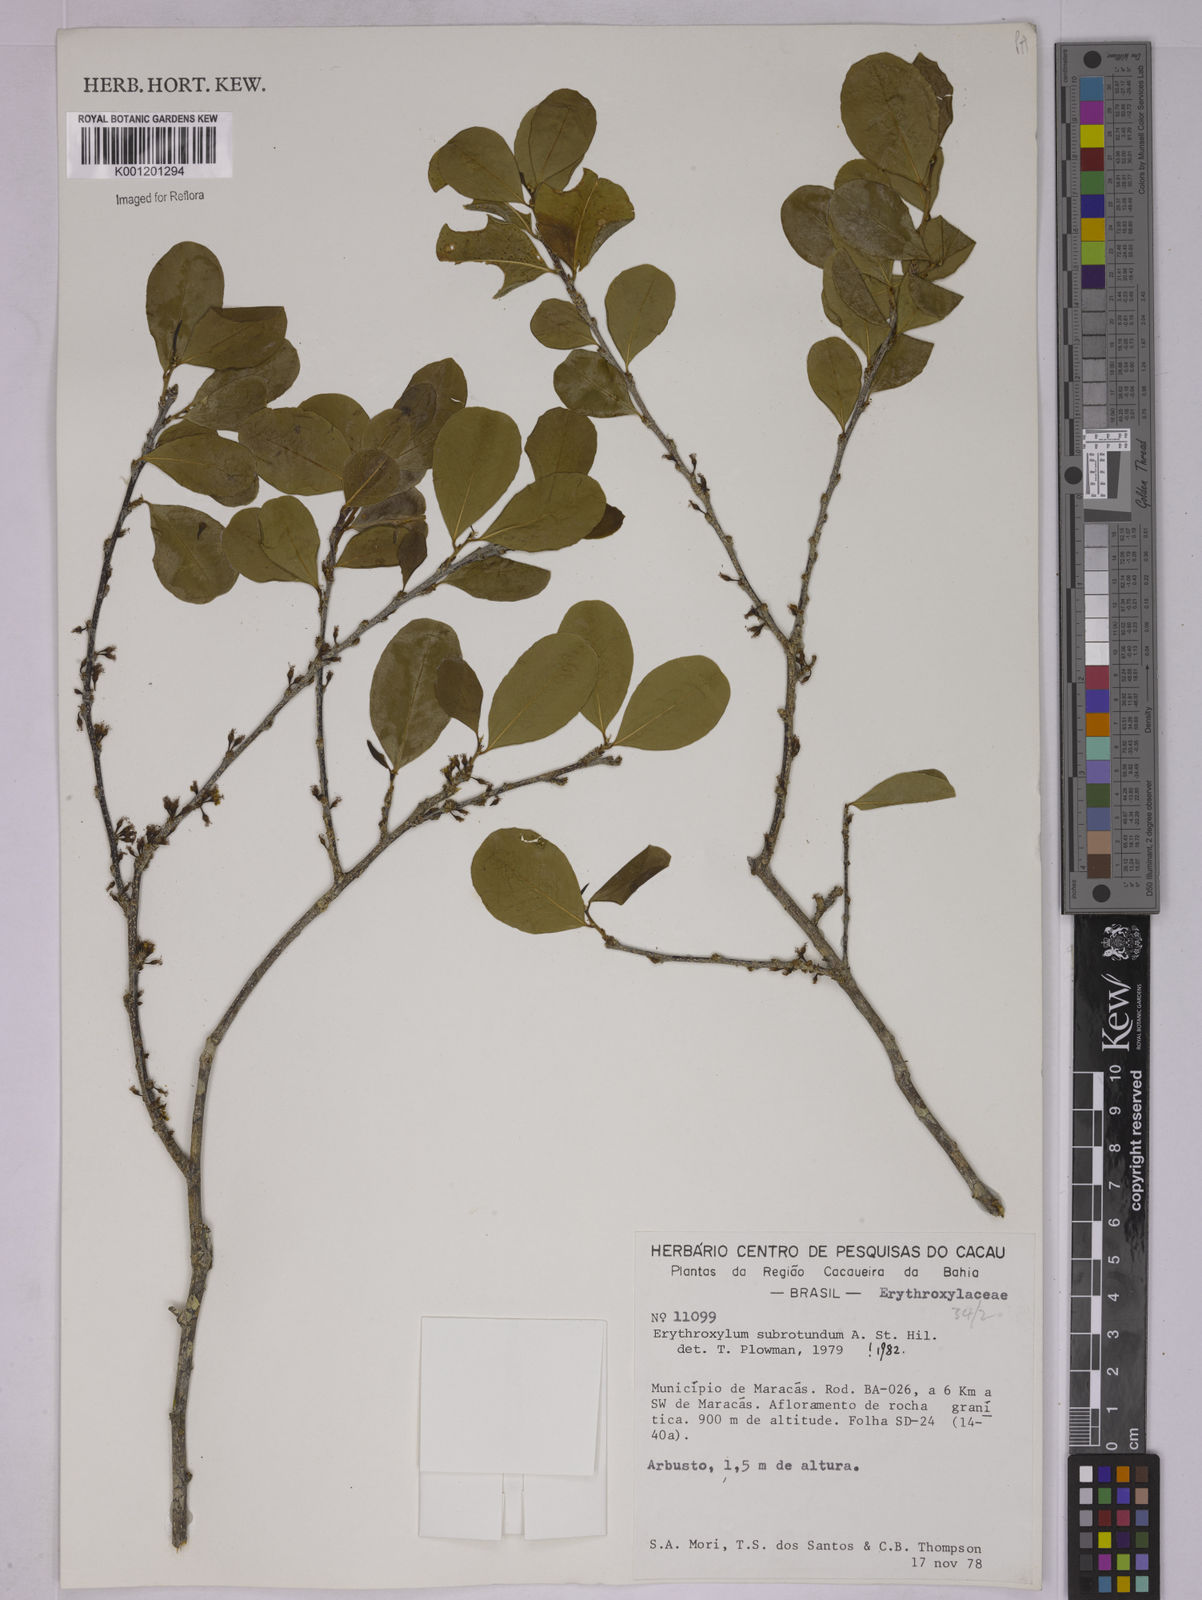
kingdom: Plantae
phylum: Tracheophyta
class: Magnoliopsida
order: Malpighiales
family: Erythroxylaceae
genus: Erythroxylum
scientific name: Erythroxylum subrotundum
